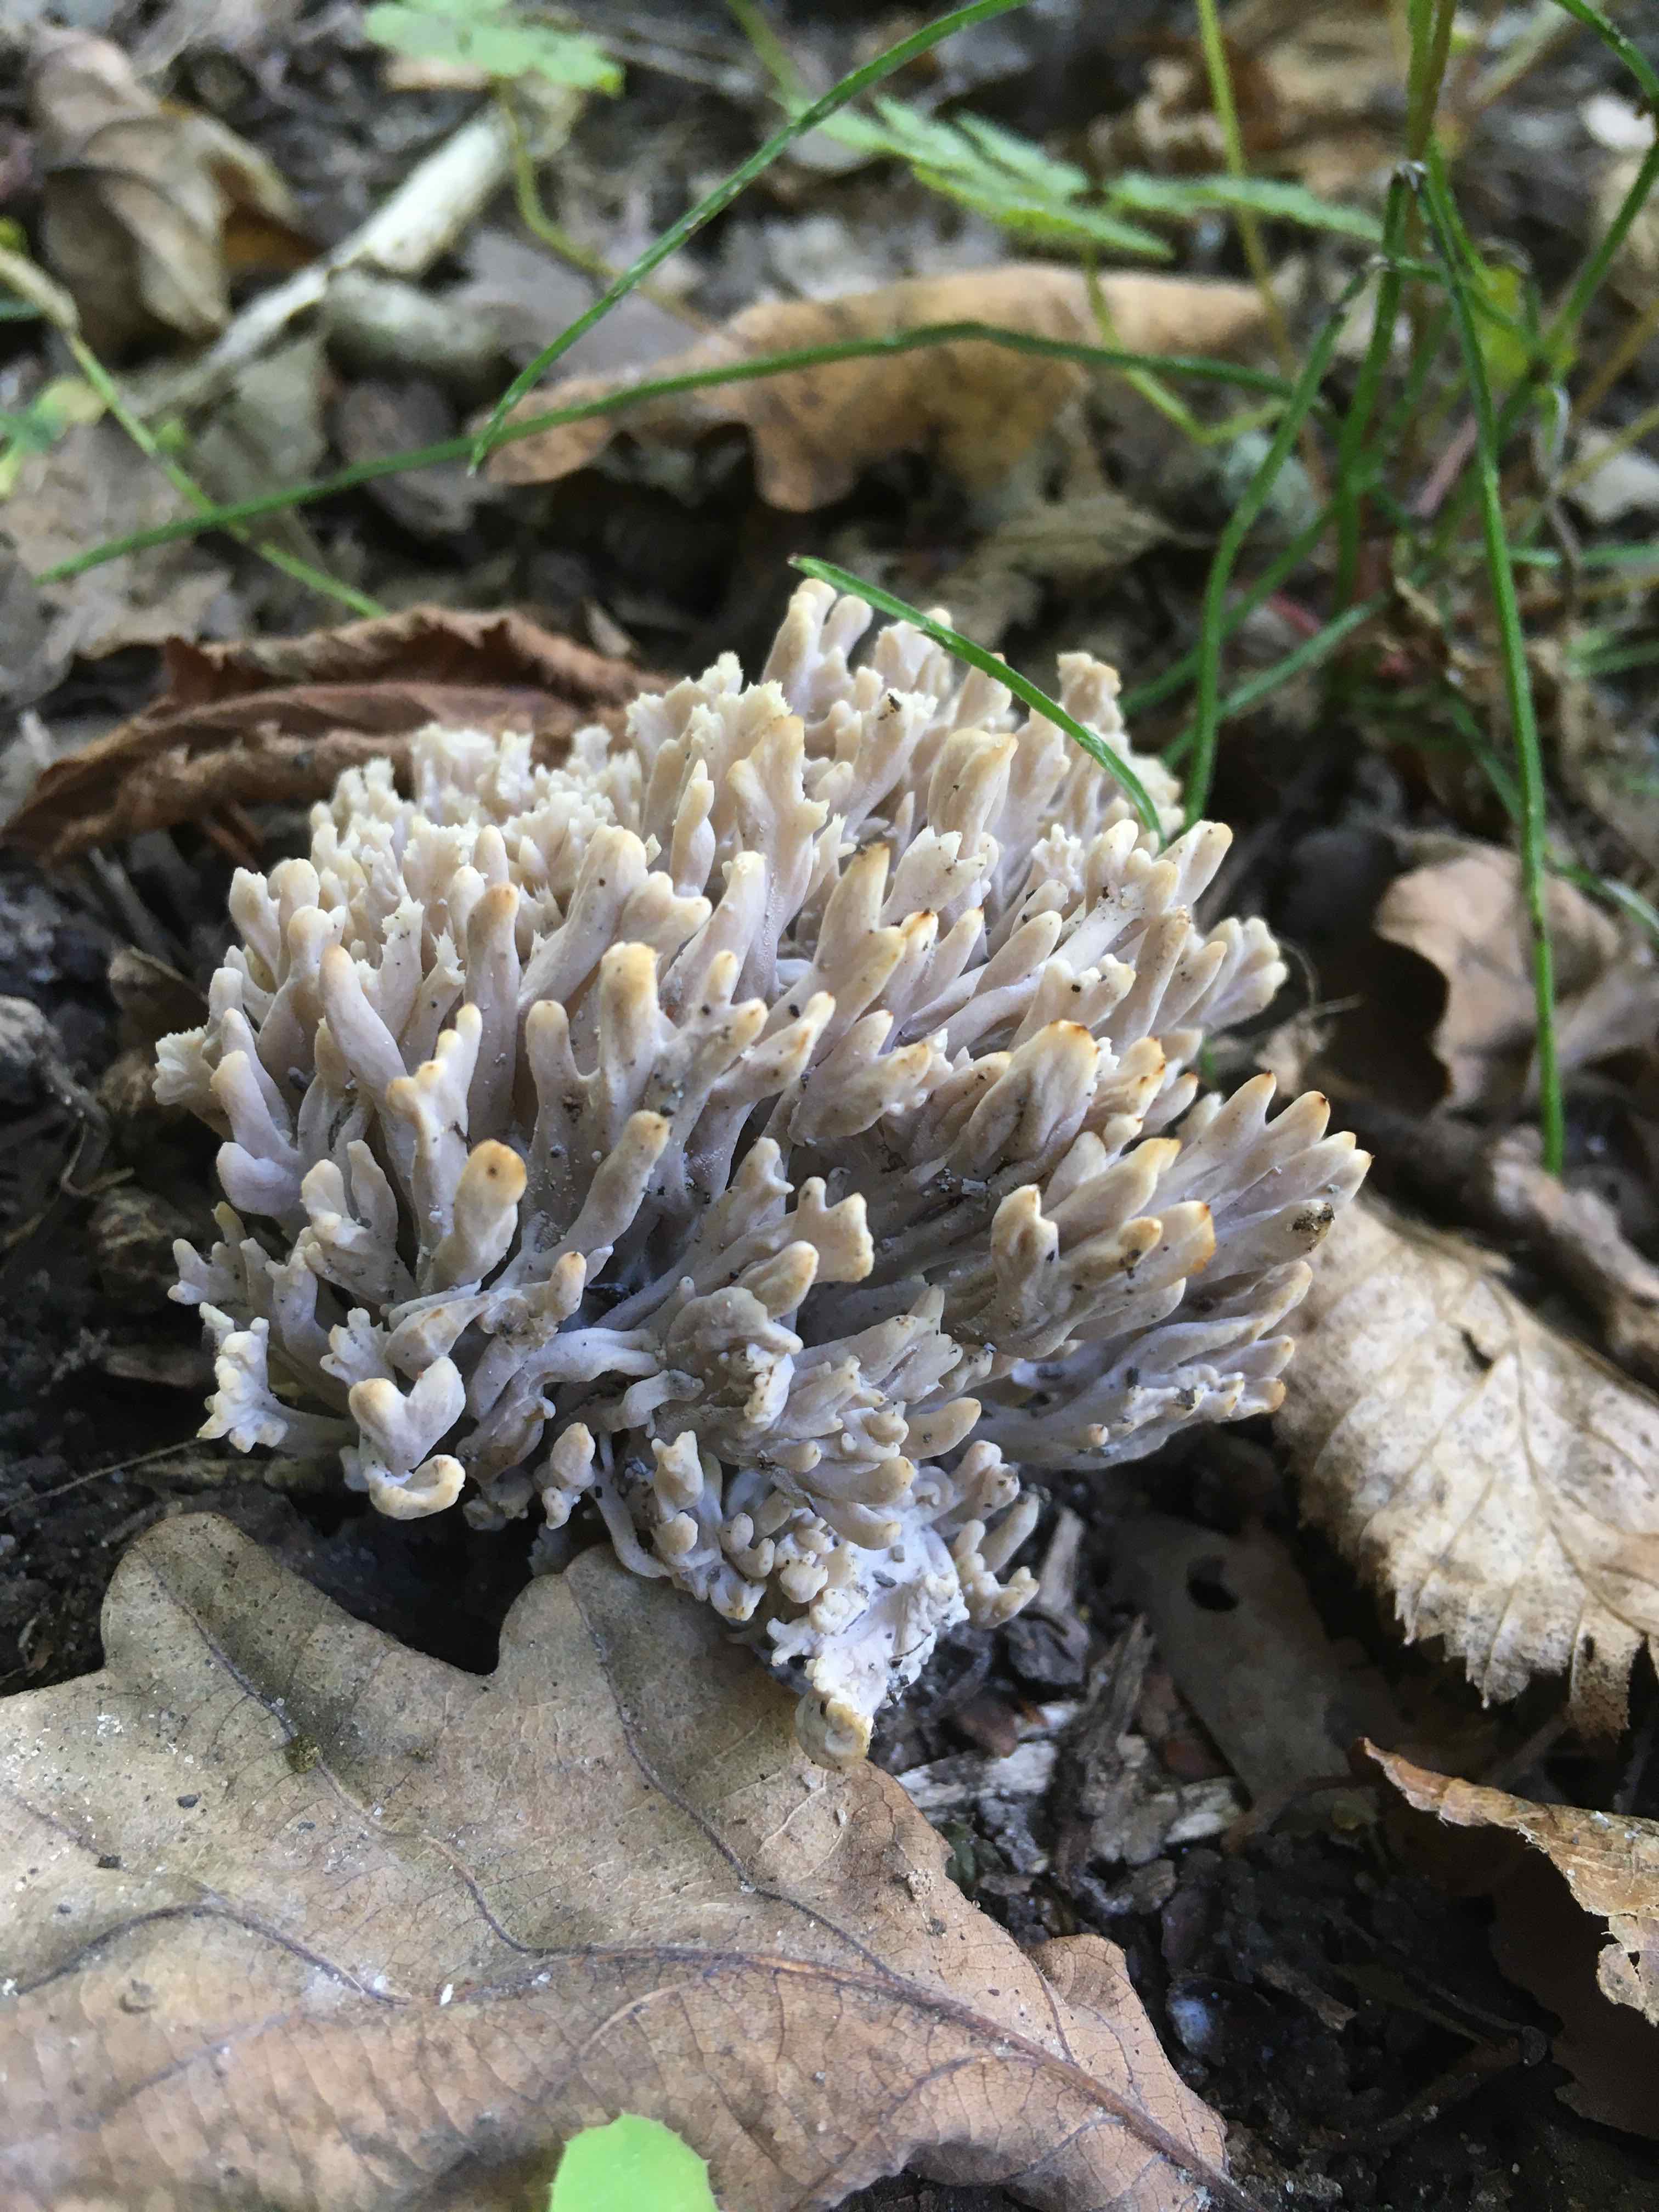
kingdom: Fungi
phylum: Basidiomycota
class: Agaricomycetes
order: Cantharellales
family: Hydnaceae
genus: Clavulina
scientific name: Clavulina
